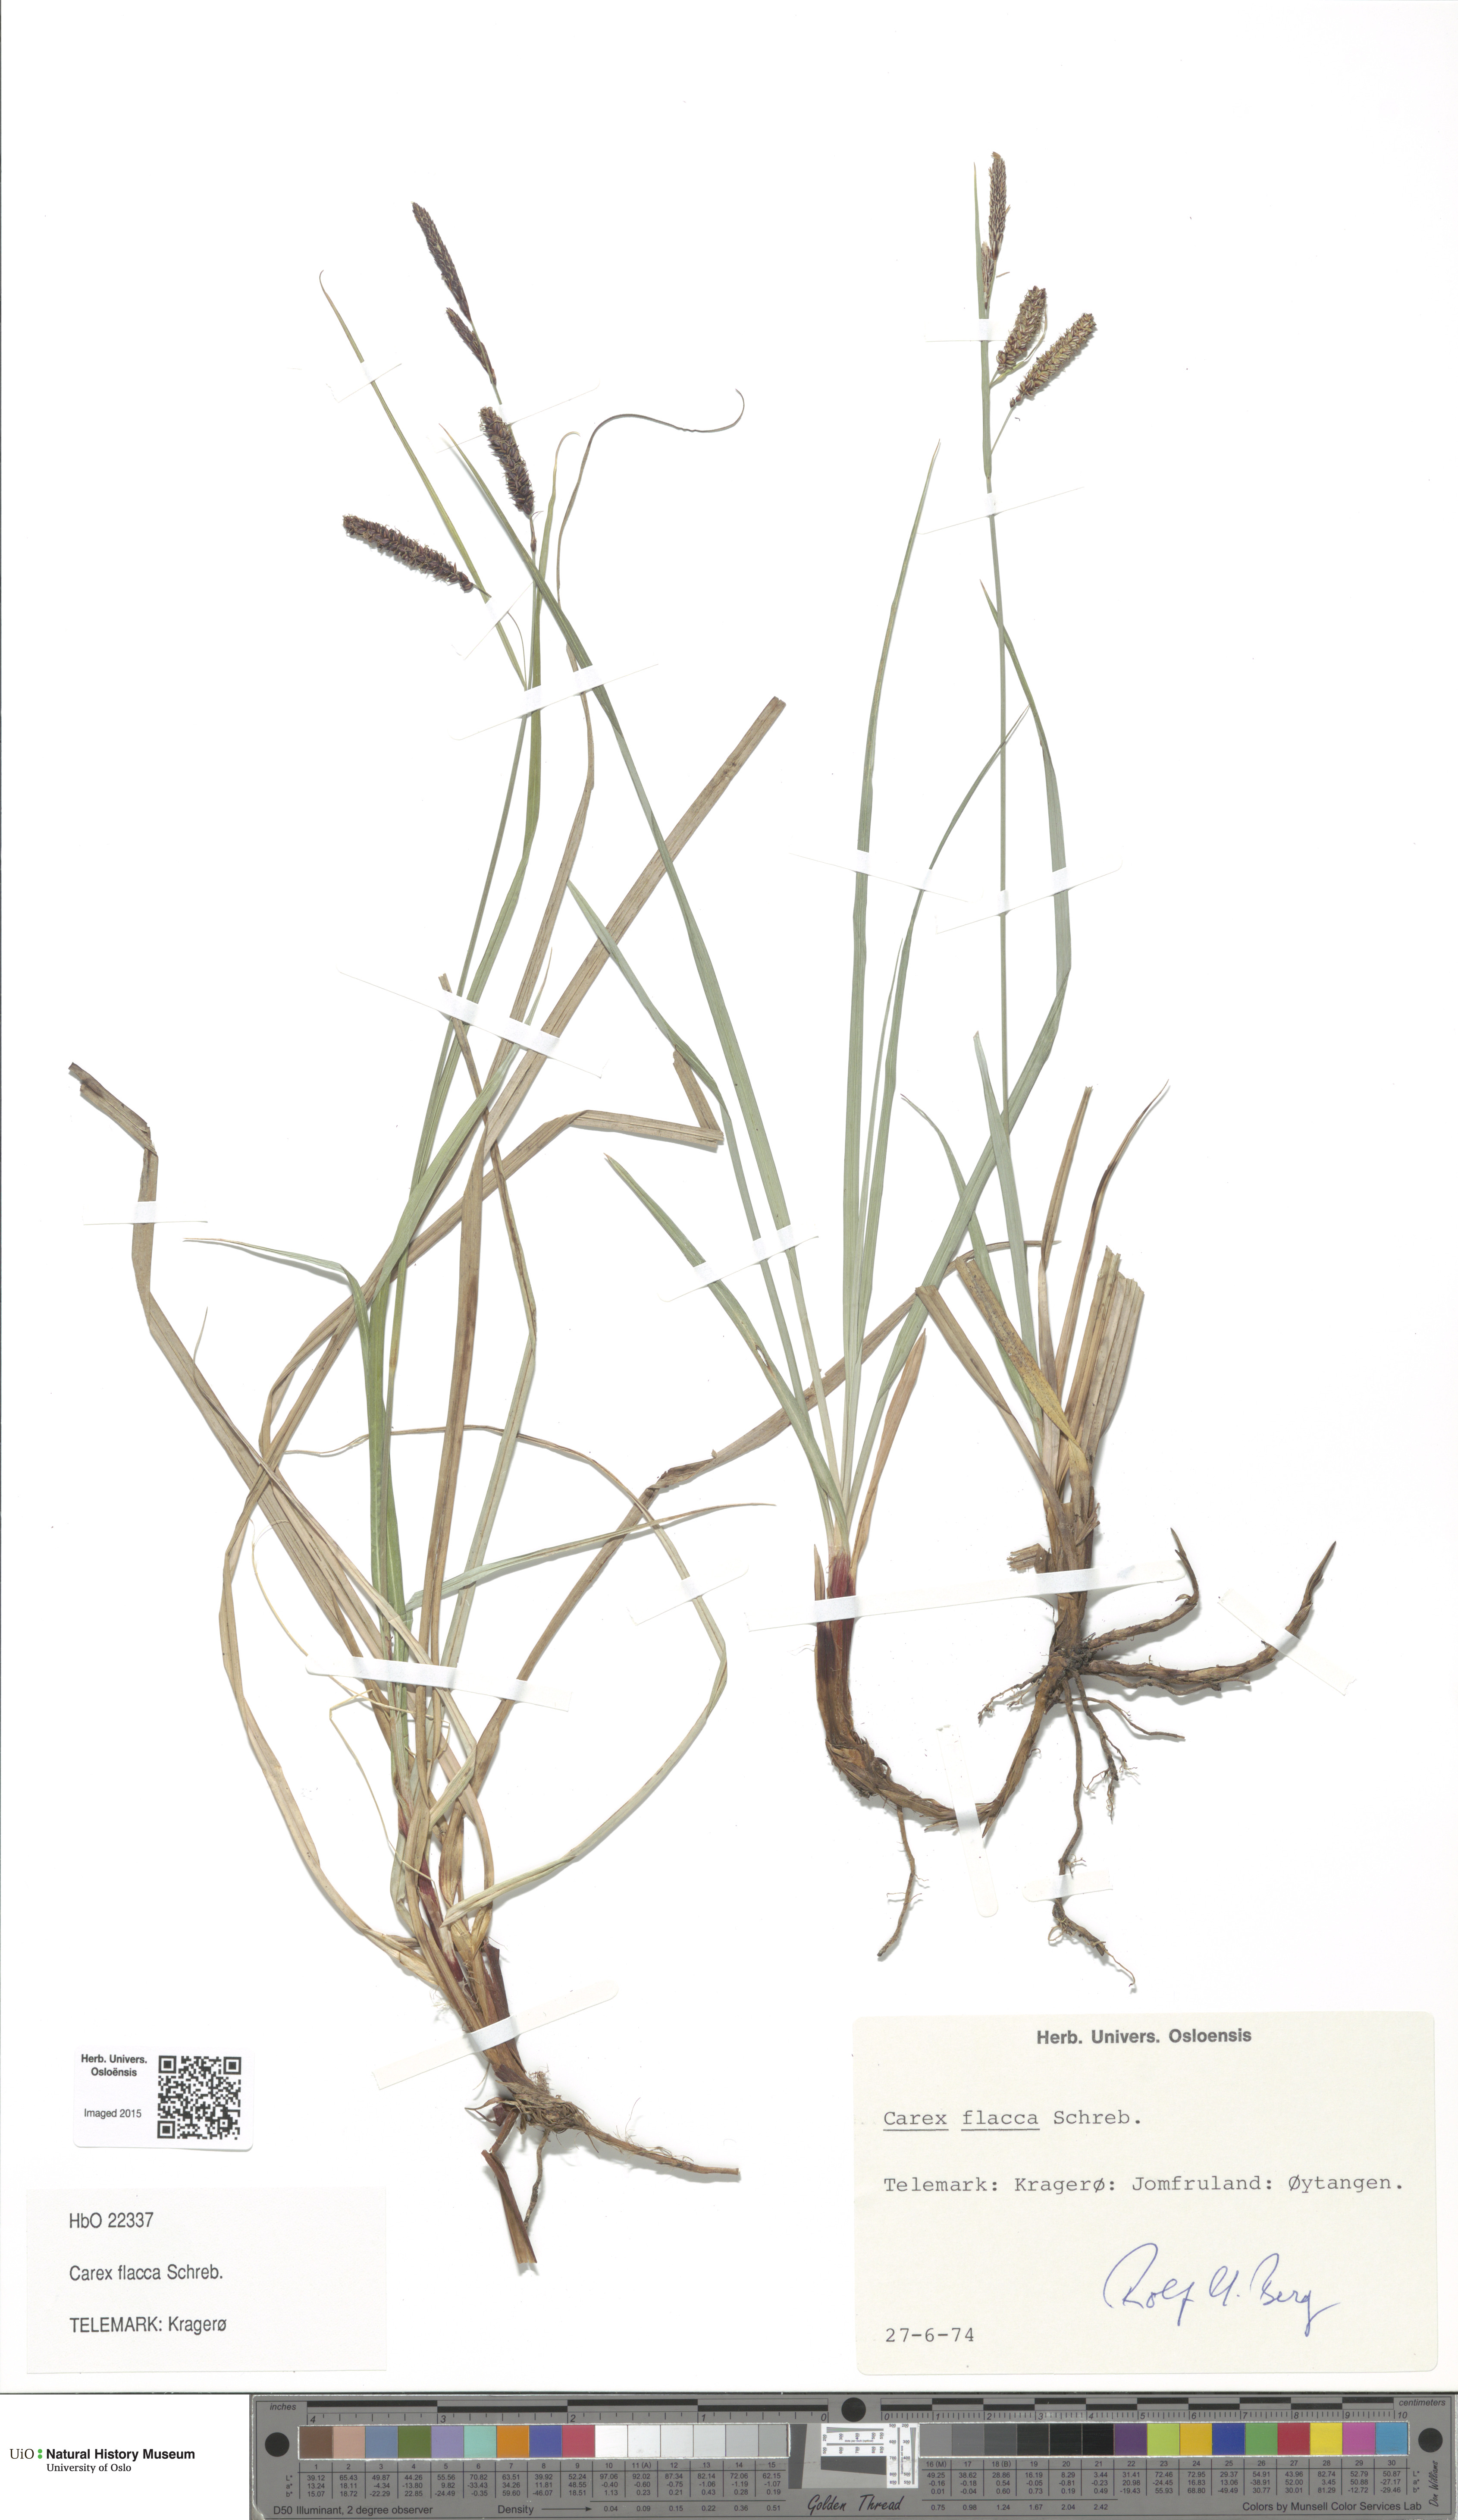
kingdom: Plantae
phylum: Tracheophyta
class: Liliopsida
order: Poales
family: Cyperaceae
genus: Carex
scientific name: Carex flacca
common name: Glaucous sedge
